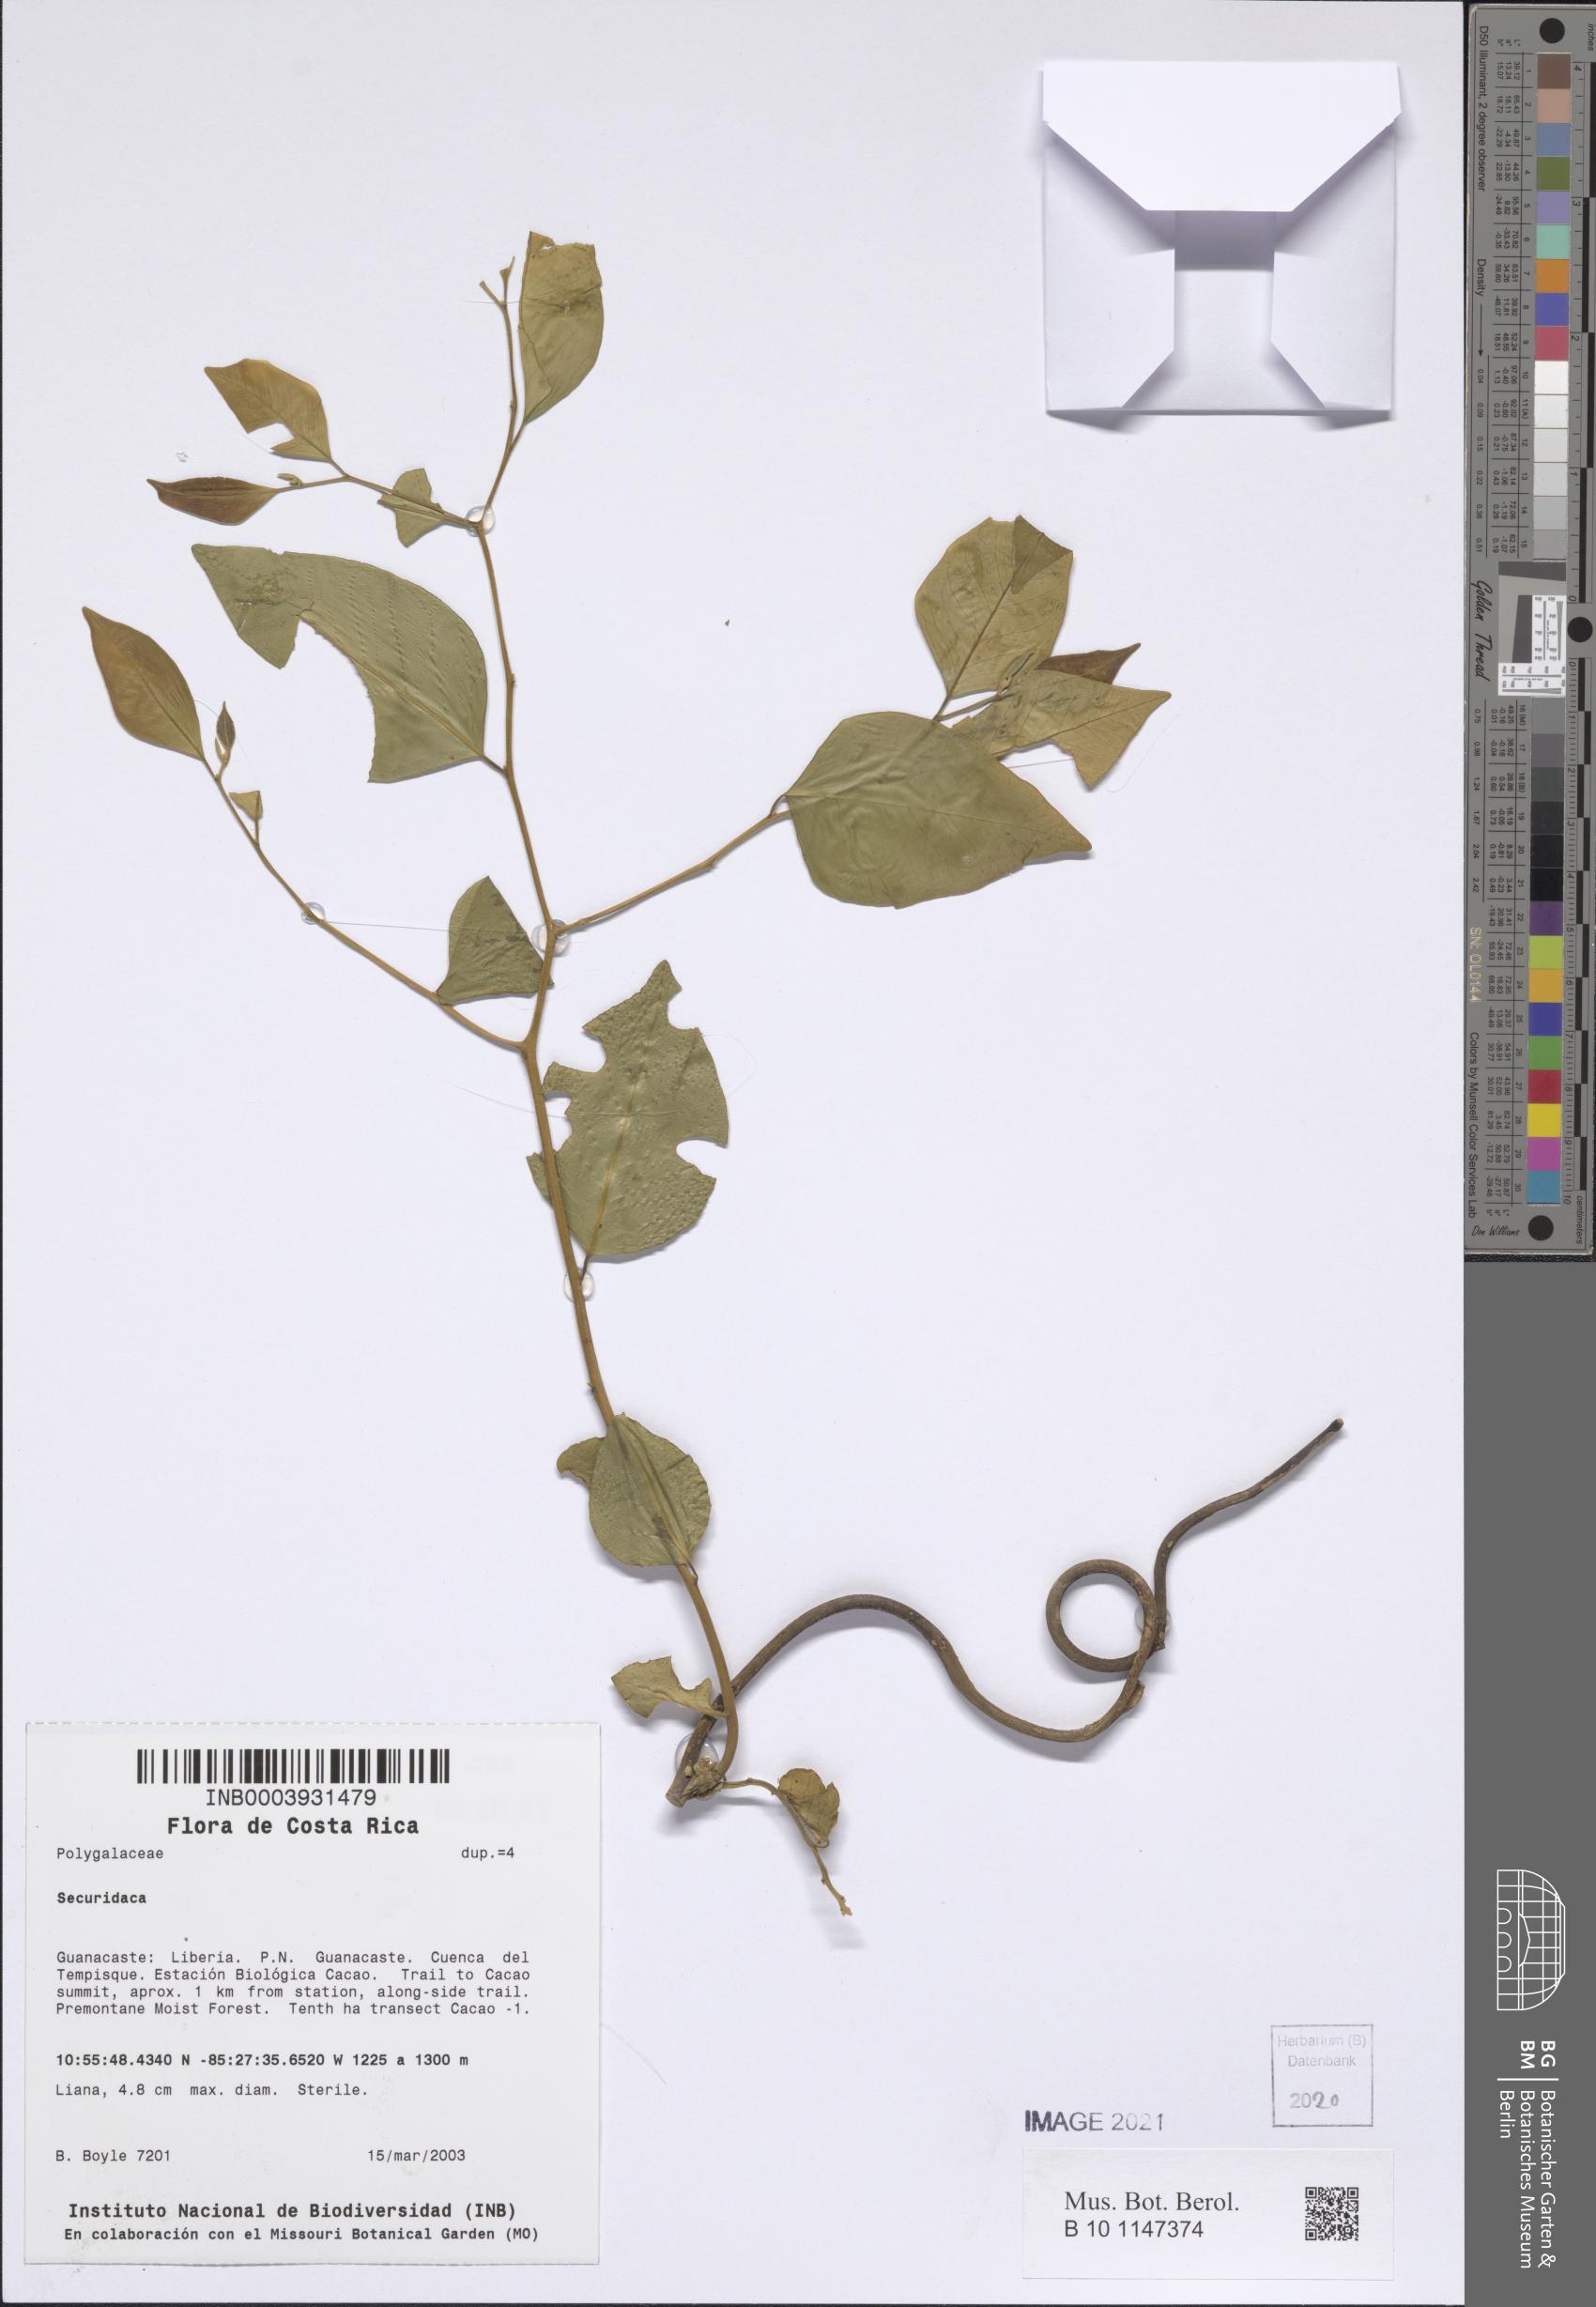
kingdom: Plantae
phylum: Tracheophyta
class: Magnoliopsida
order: Fabales
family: Polygalaceae
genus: Securidaca
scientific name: Securidaca
